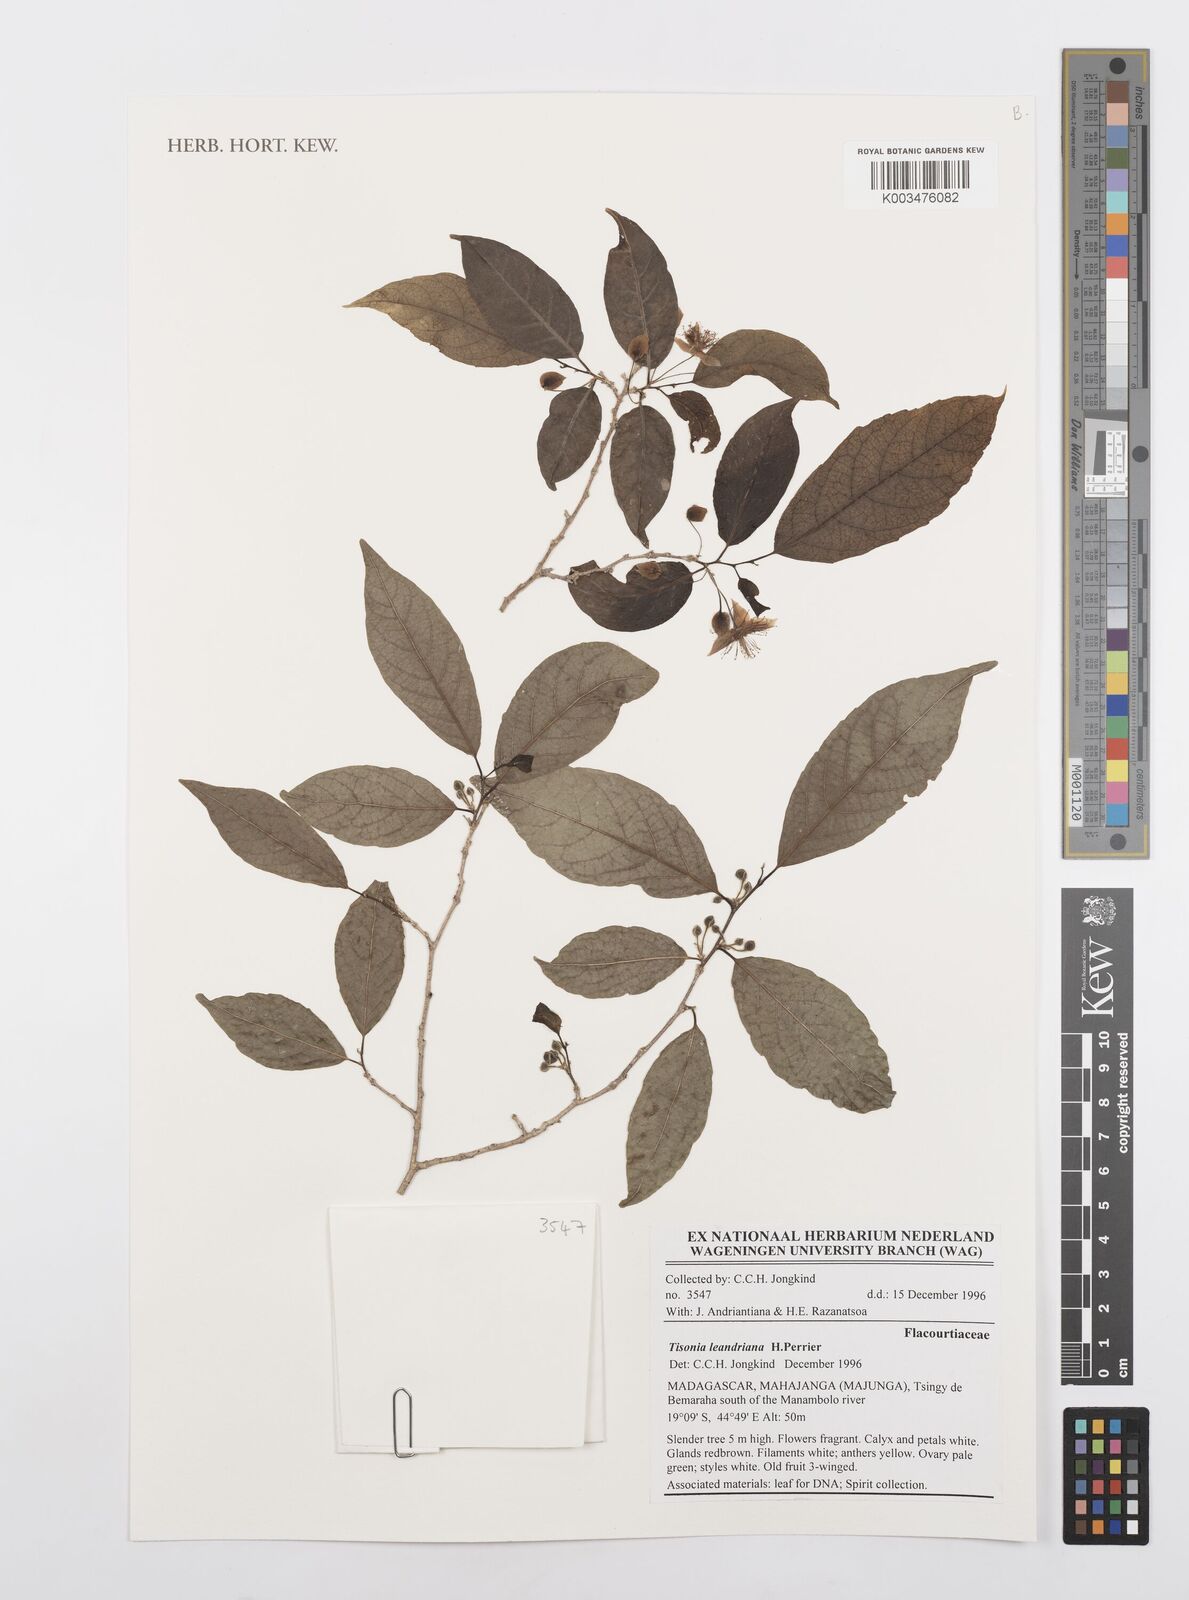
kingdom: Plantae
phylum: Tracheophyta
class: Magnoliopsida
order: Malpighiales
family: Salicaceae
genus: Tisonia
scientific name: Tisonia leandriana
